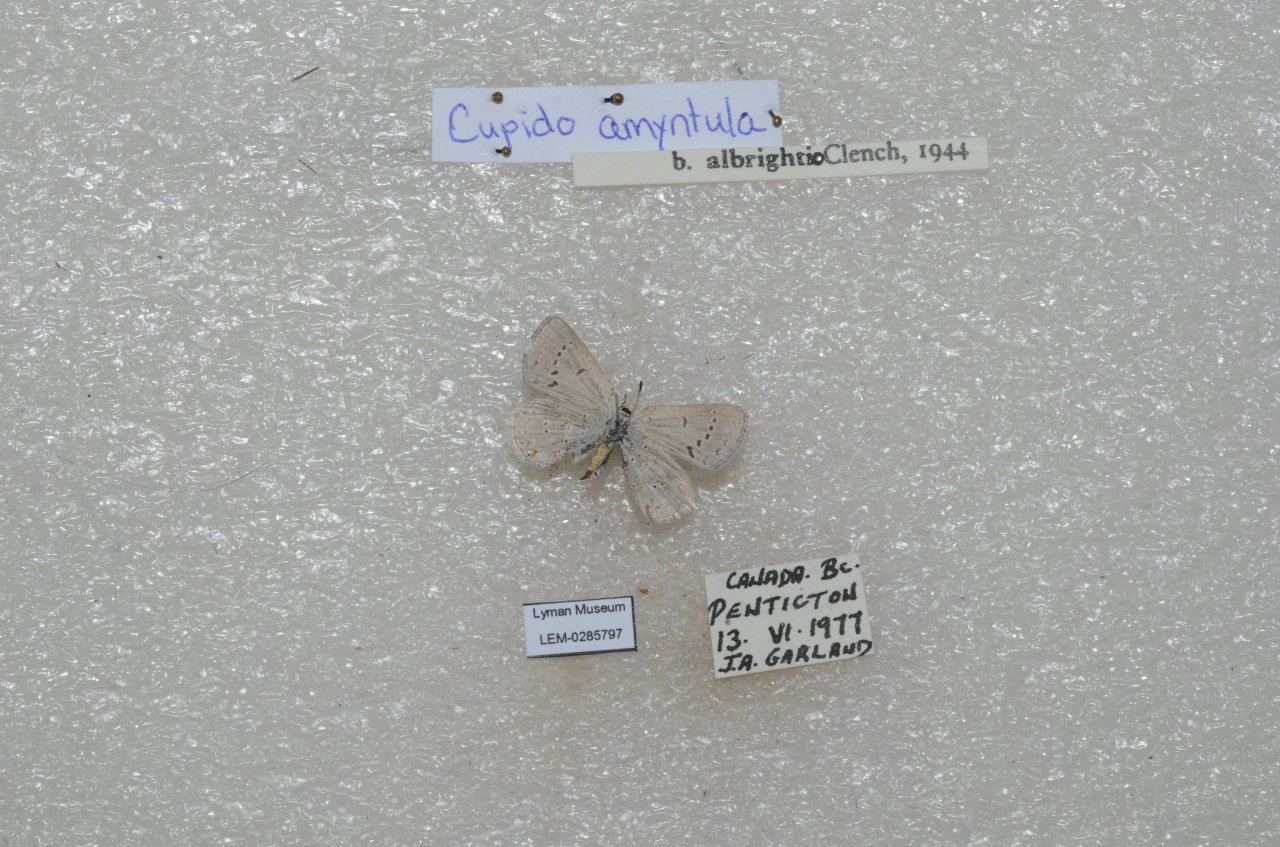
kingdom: Animalia
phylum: Arthropoda
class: Insecta
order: Lepidoptera
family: Lycaenidae
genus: Elkalyce
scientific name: Elkalyce amyntula
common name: Western Tailed-Blue
